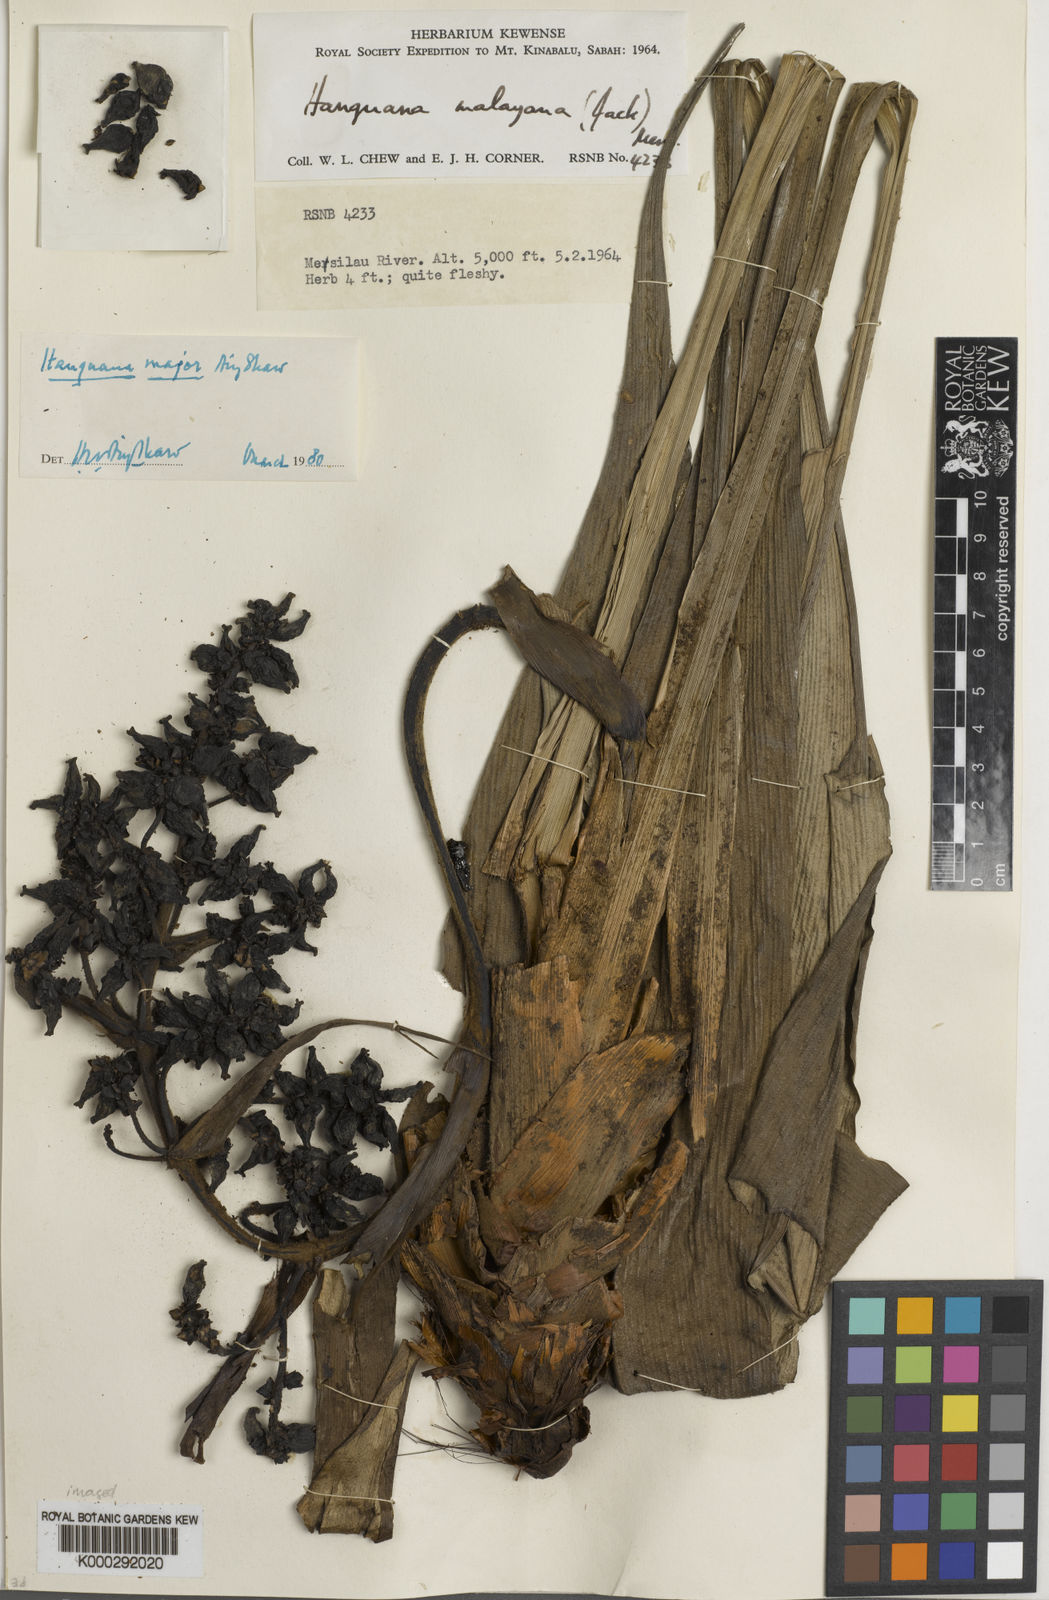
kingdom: Plantae
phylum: Tracheophyta
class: Liliopsida
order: Commelinales
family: Hanguanaceae
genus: Hanguana
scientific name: Hanguana major
